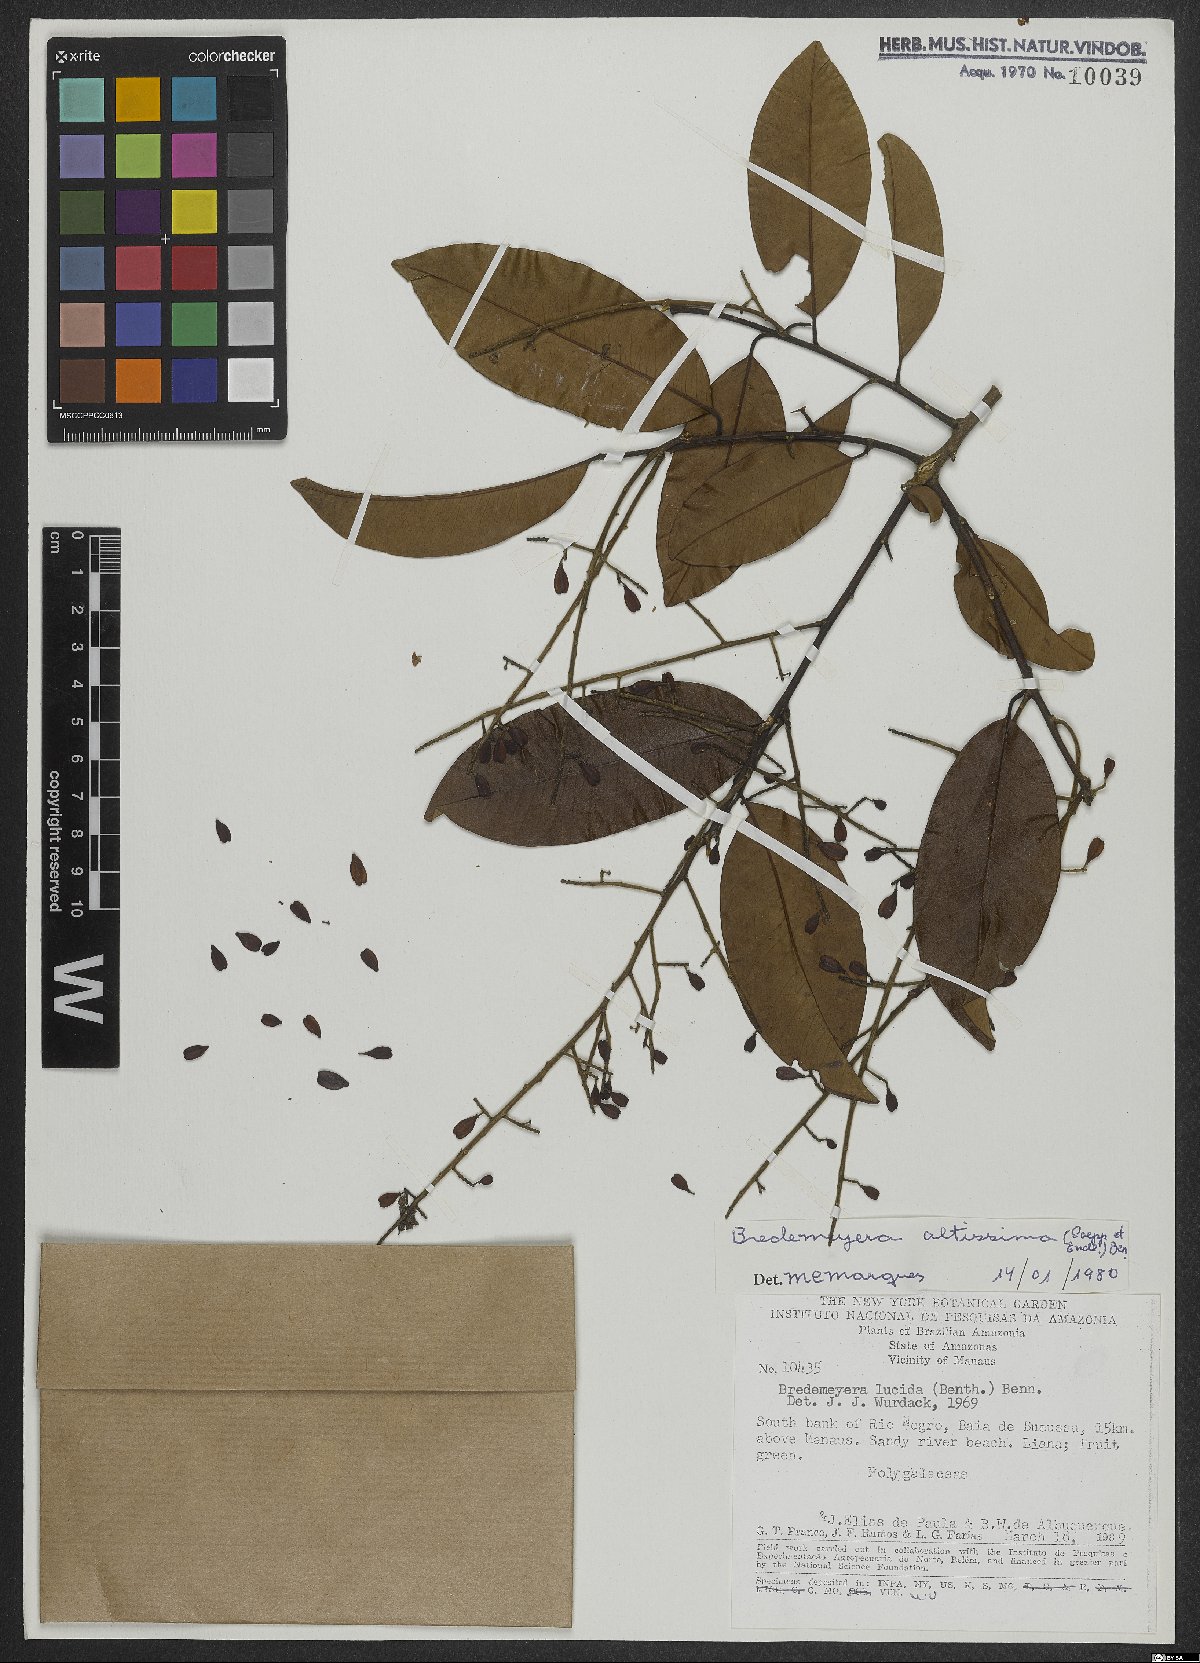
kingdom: Plantae
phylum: Tracheophyta
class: Magnoliopsida
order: Fabales
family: Polygalaceae
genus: Bredemeyera
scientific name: Bredemeyera divaricata
